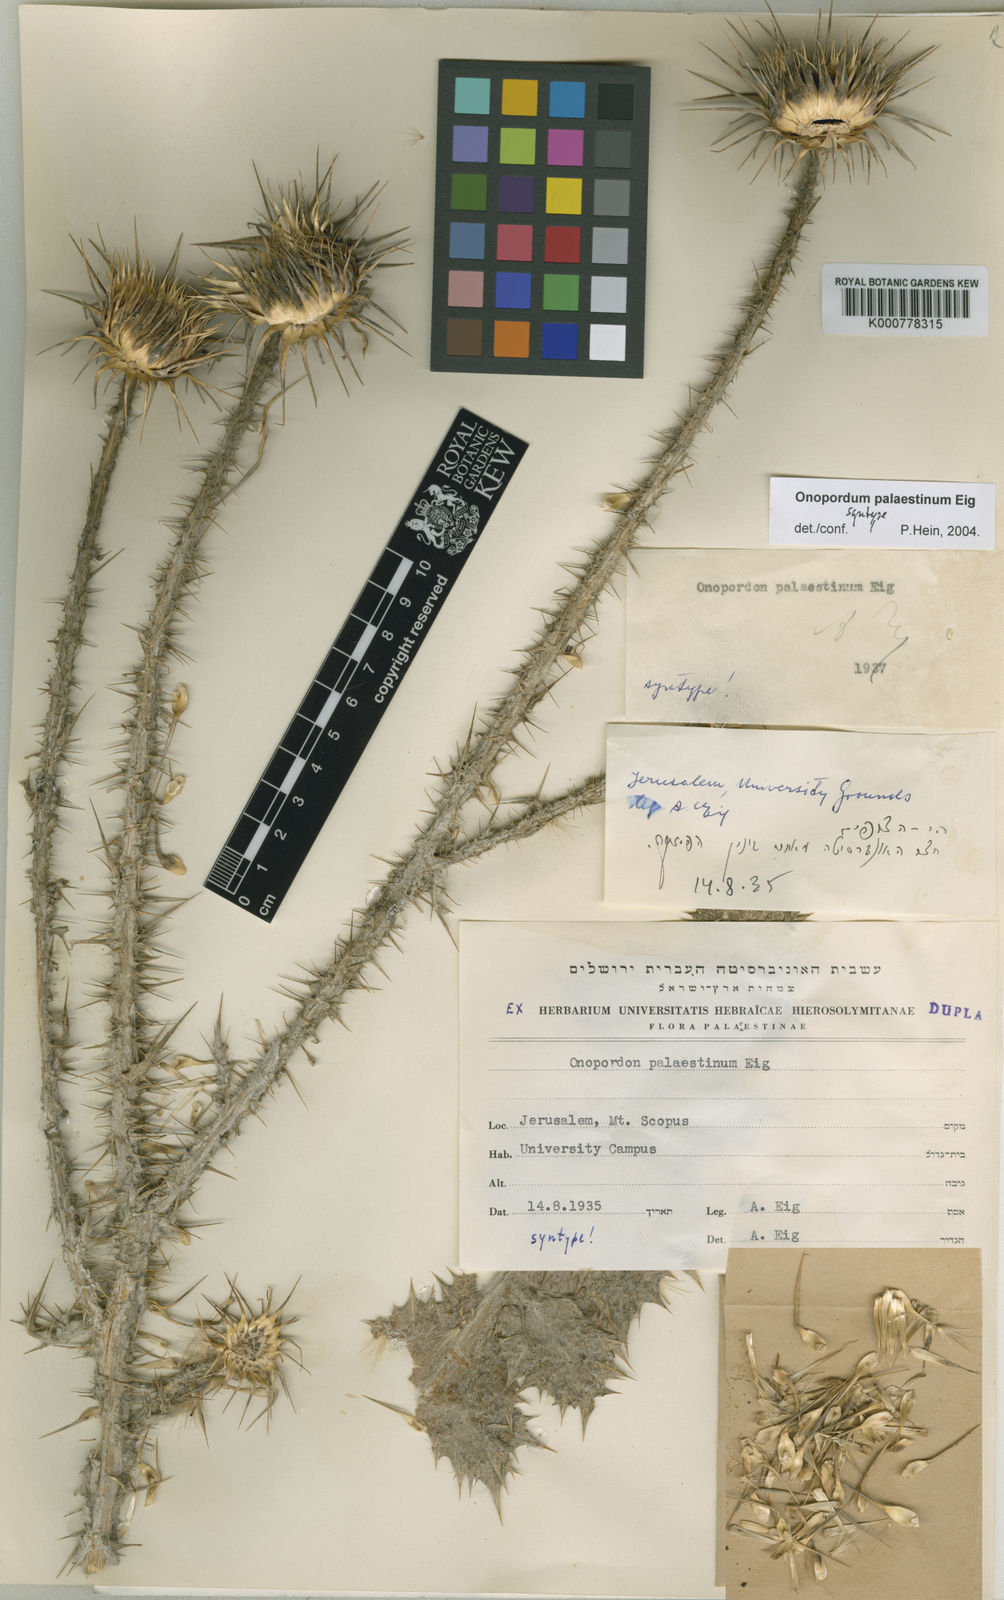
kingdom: Plantae
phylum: Tracheophyta
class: Magnoliopsida
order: Asterales
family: Asteraceae
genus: Onopordum
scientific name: Onopordum palaestinum
